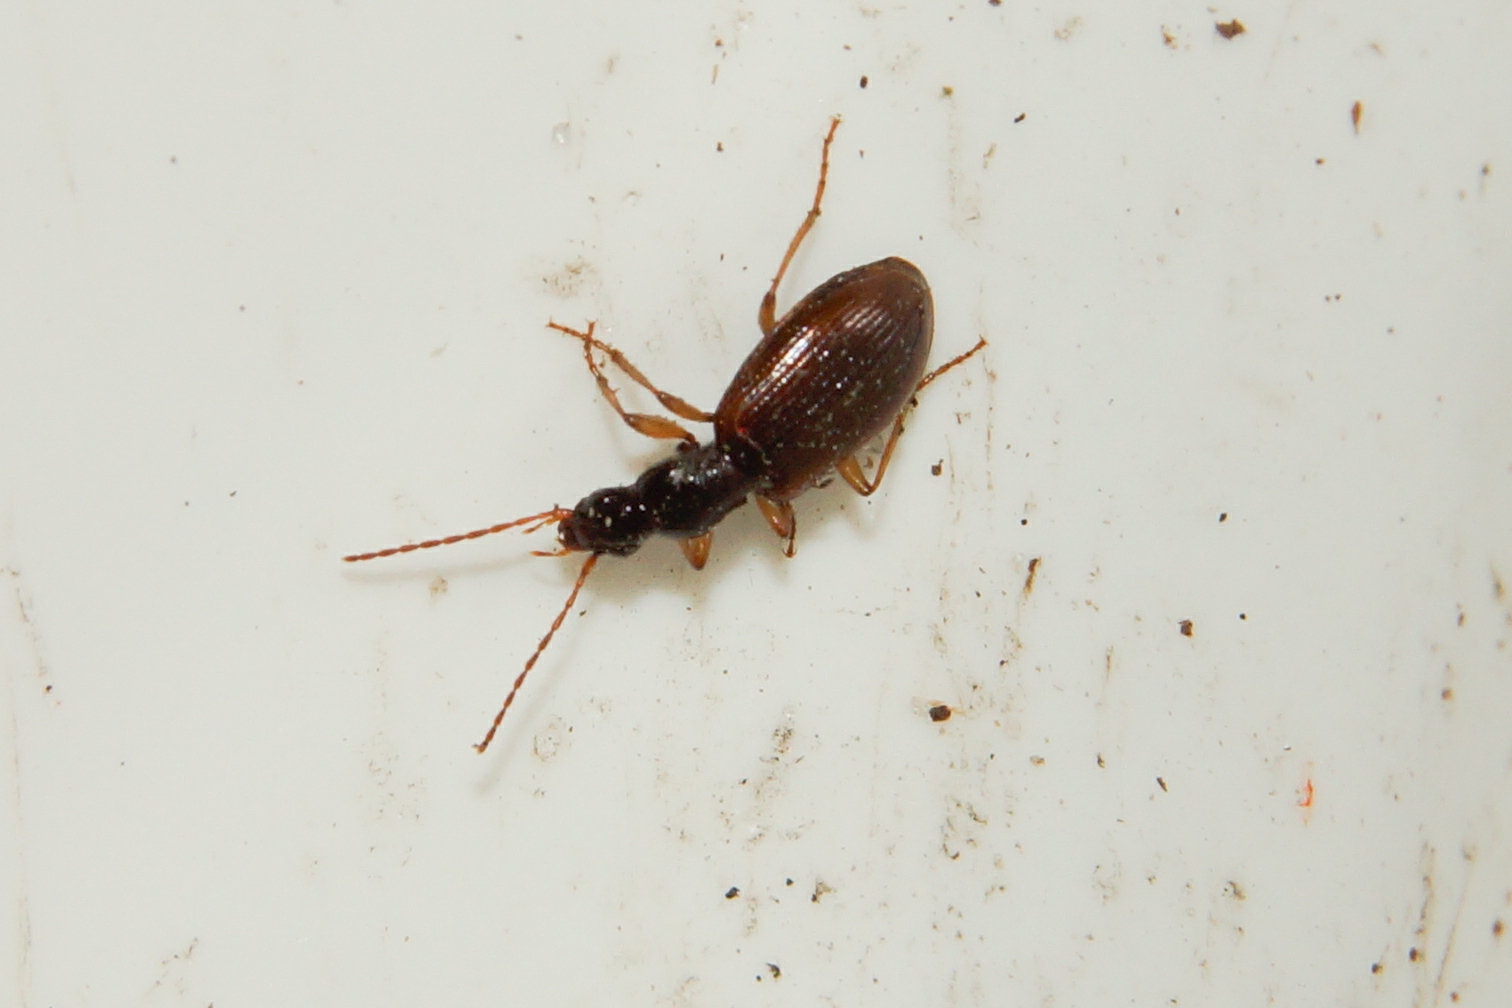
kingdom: Animalia
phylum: Arthropoda
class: Insecta
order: Coleoptera
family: Carabidae
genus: Oxypselaphus
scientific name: Oxypselaphus obscurus
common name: Rødbrun kvikløber
